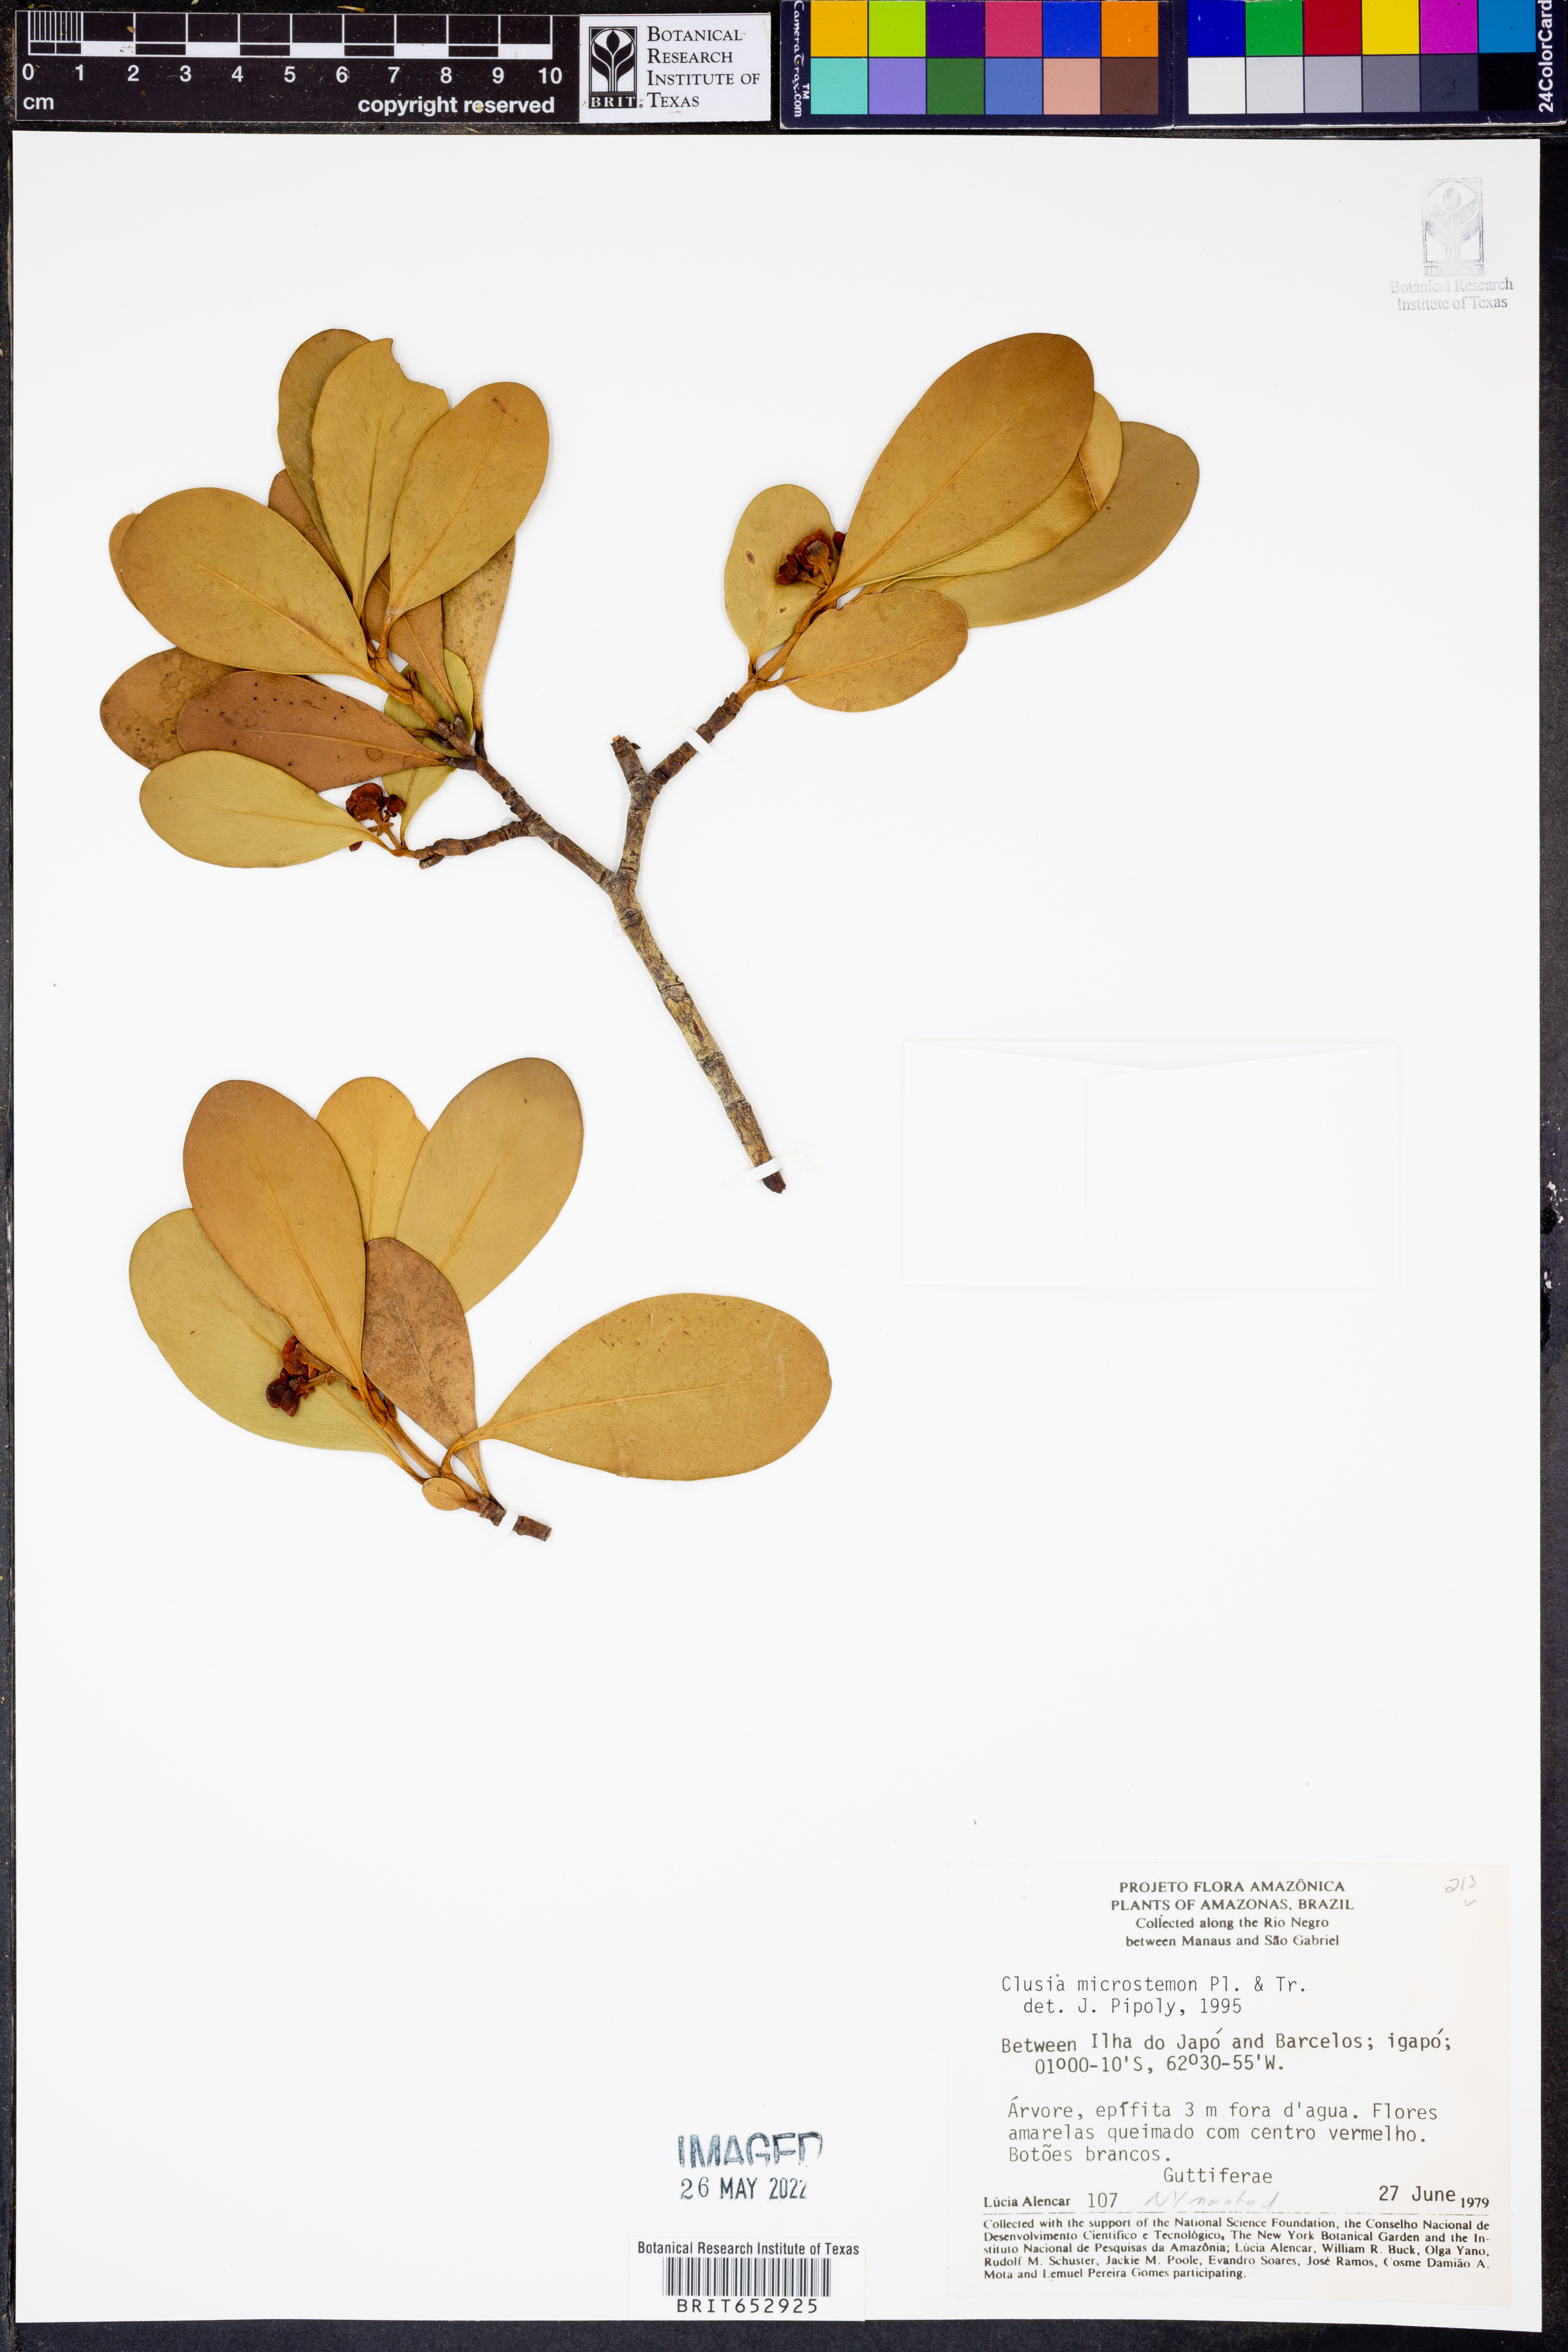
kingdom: Plantae
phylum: Tracheophyta
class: Magnoliopsida
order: Malpighiales
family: Clusiaceae
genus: Clusia
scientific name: Clusia microstemon
